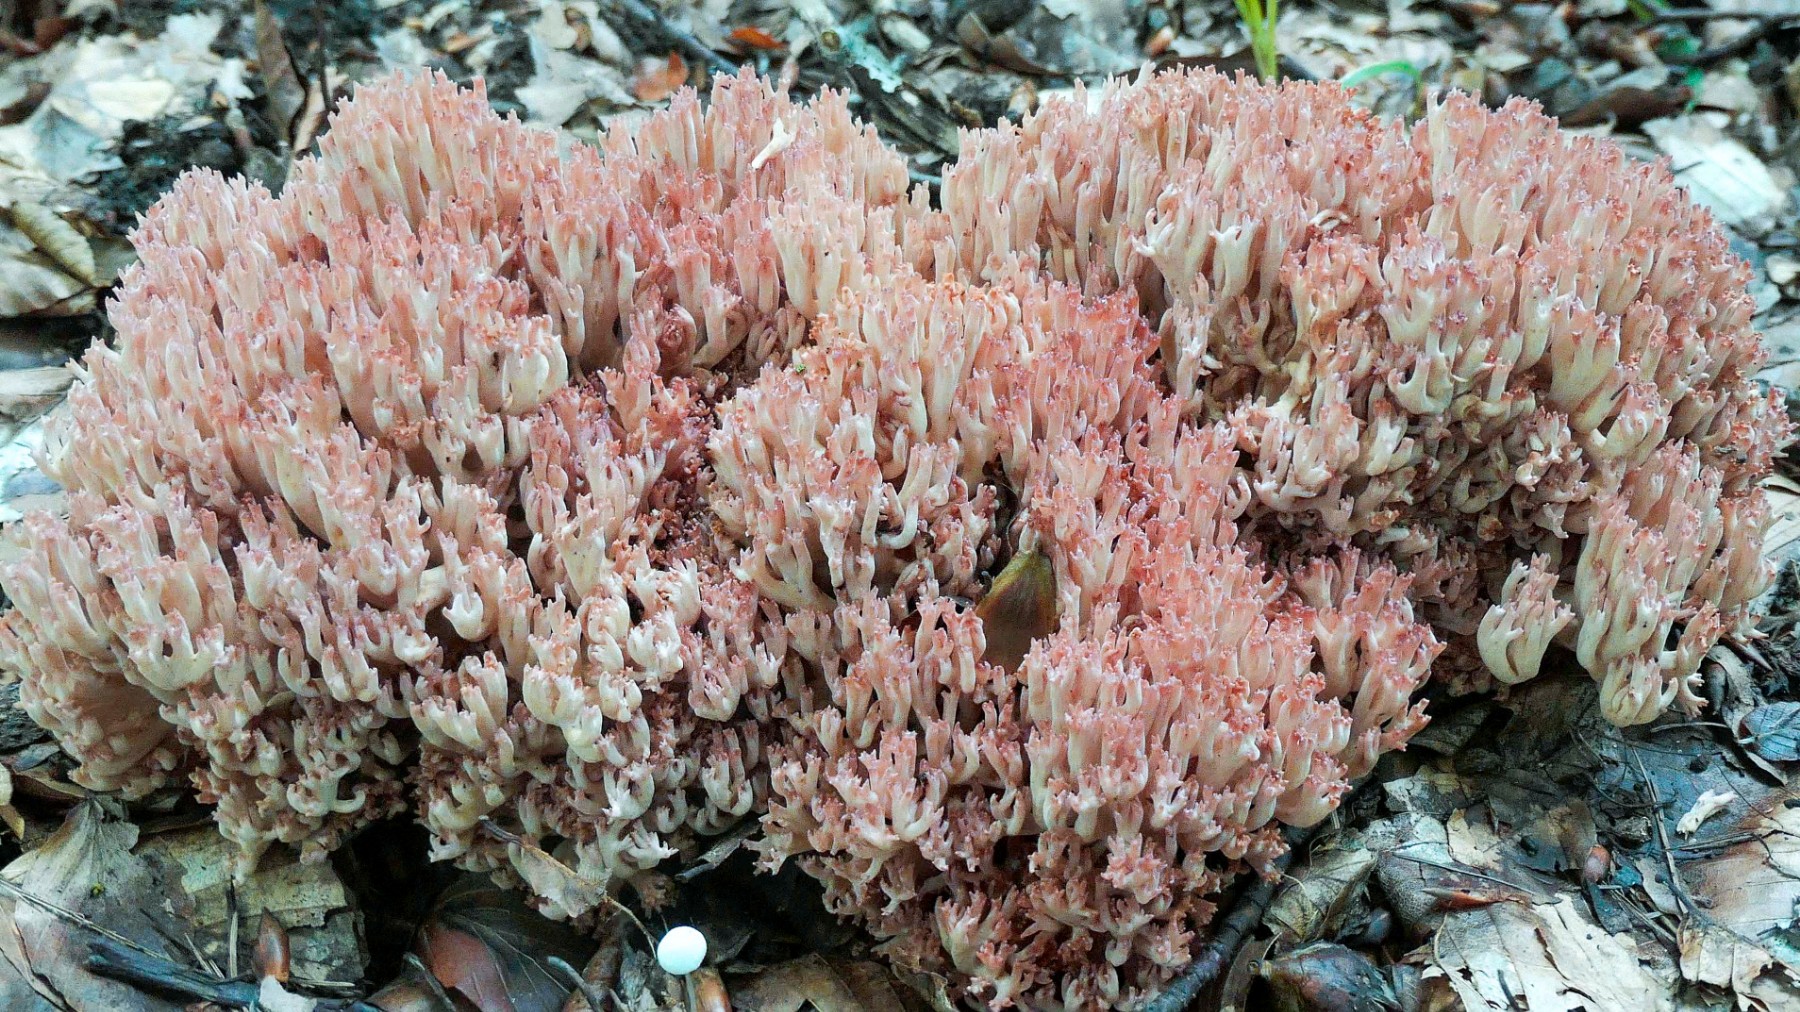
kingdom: Fungi
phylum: Basidiomycota
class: Agaricomycetes
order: Gomphales
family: Gomphaceae
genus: Ramaria
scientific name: Ramaria botrytis
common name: drue-koralsvamp
